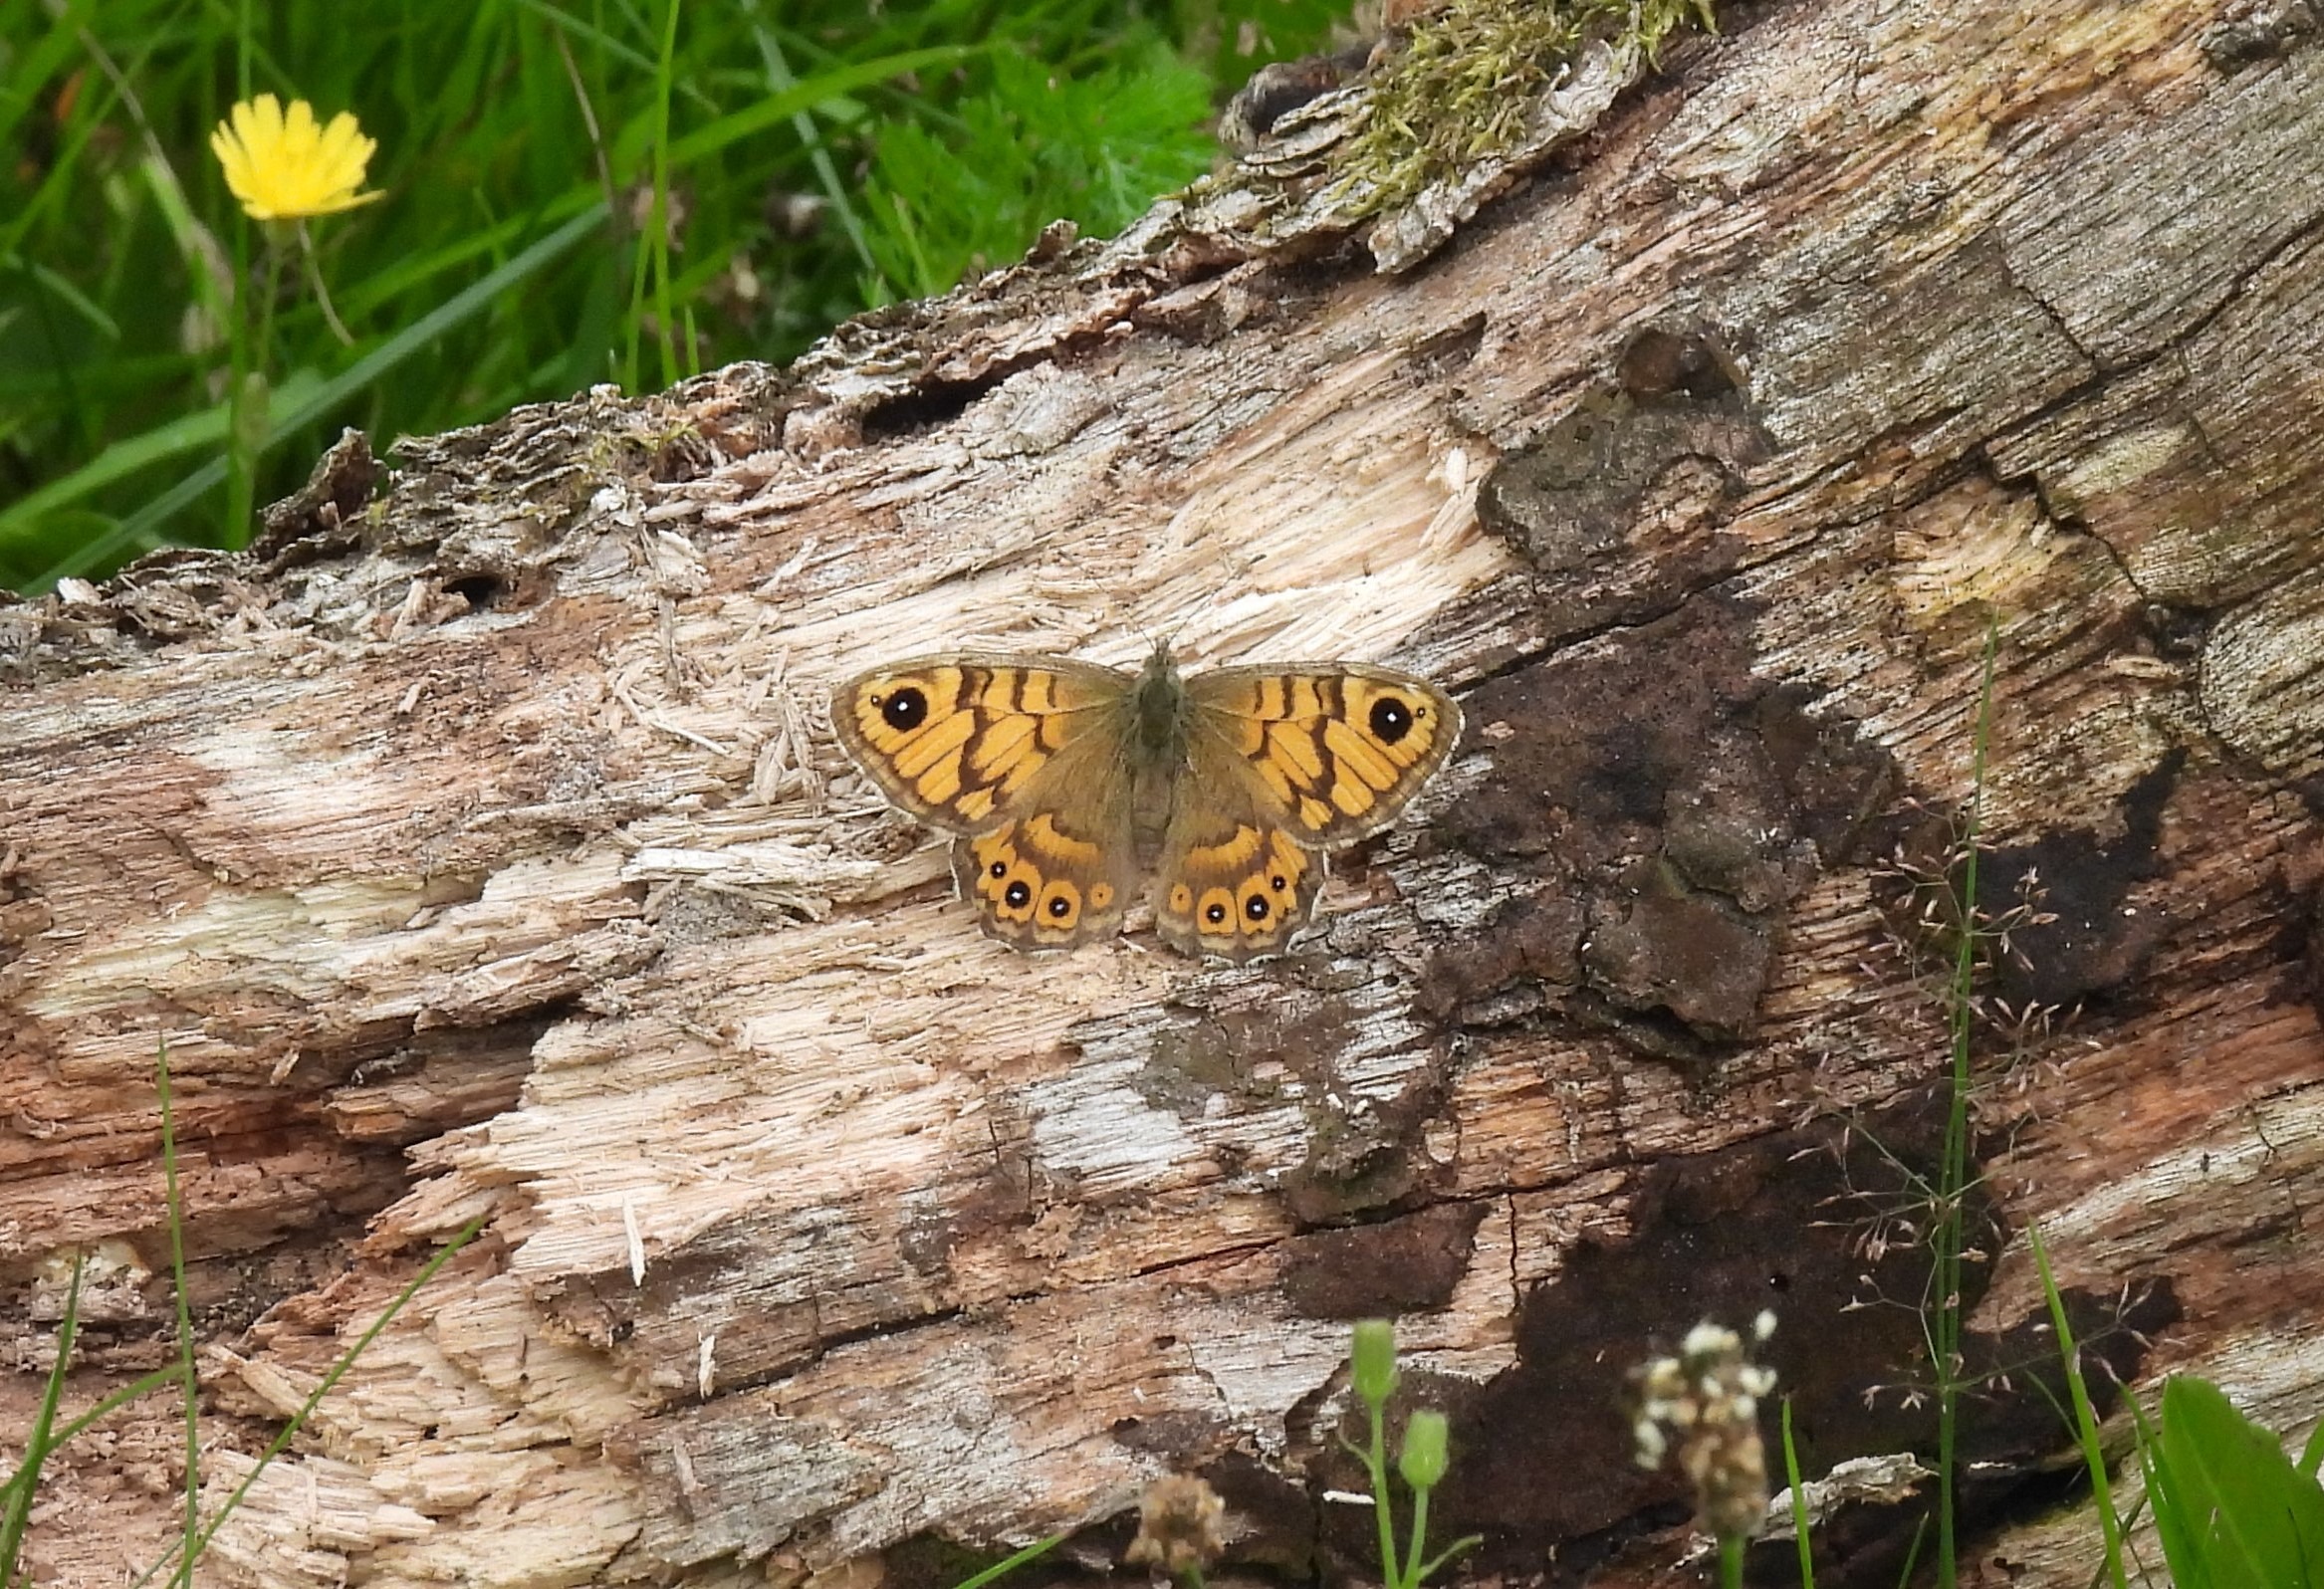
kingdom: Animalia
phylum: Arthropoda
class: Insecta
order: Lepidoptera
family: Nymphalidae
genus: Pararge
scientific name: Pararge Lasiommata megera
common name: Vejrandøje
